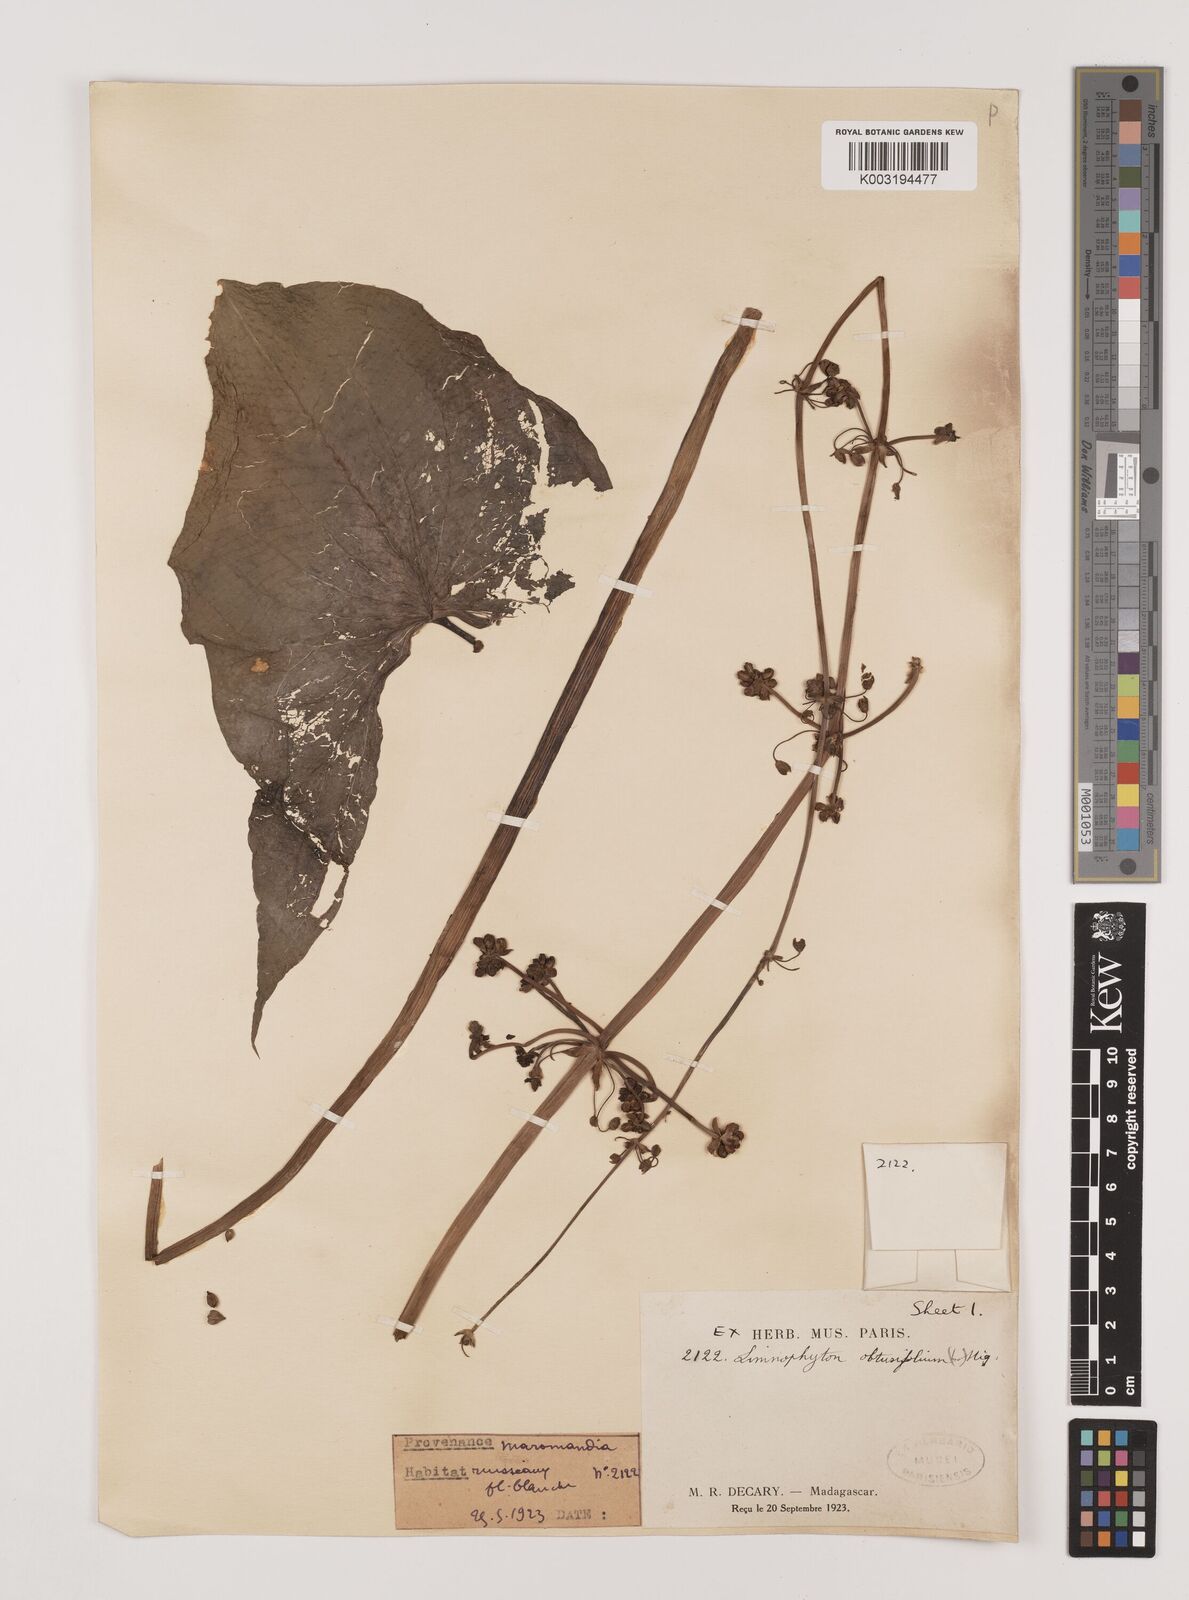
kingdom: Plantae
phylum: Tracheophyta
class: Liliopsida
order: Alismatales
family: Alismataceae
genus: Limnophyton
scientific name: Limnophyton obtusifolium
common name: Arrow head
